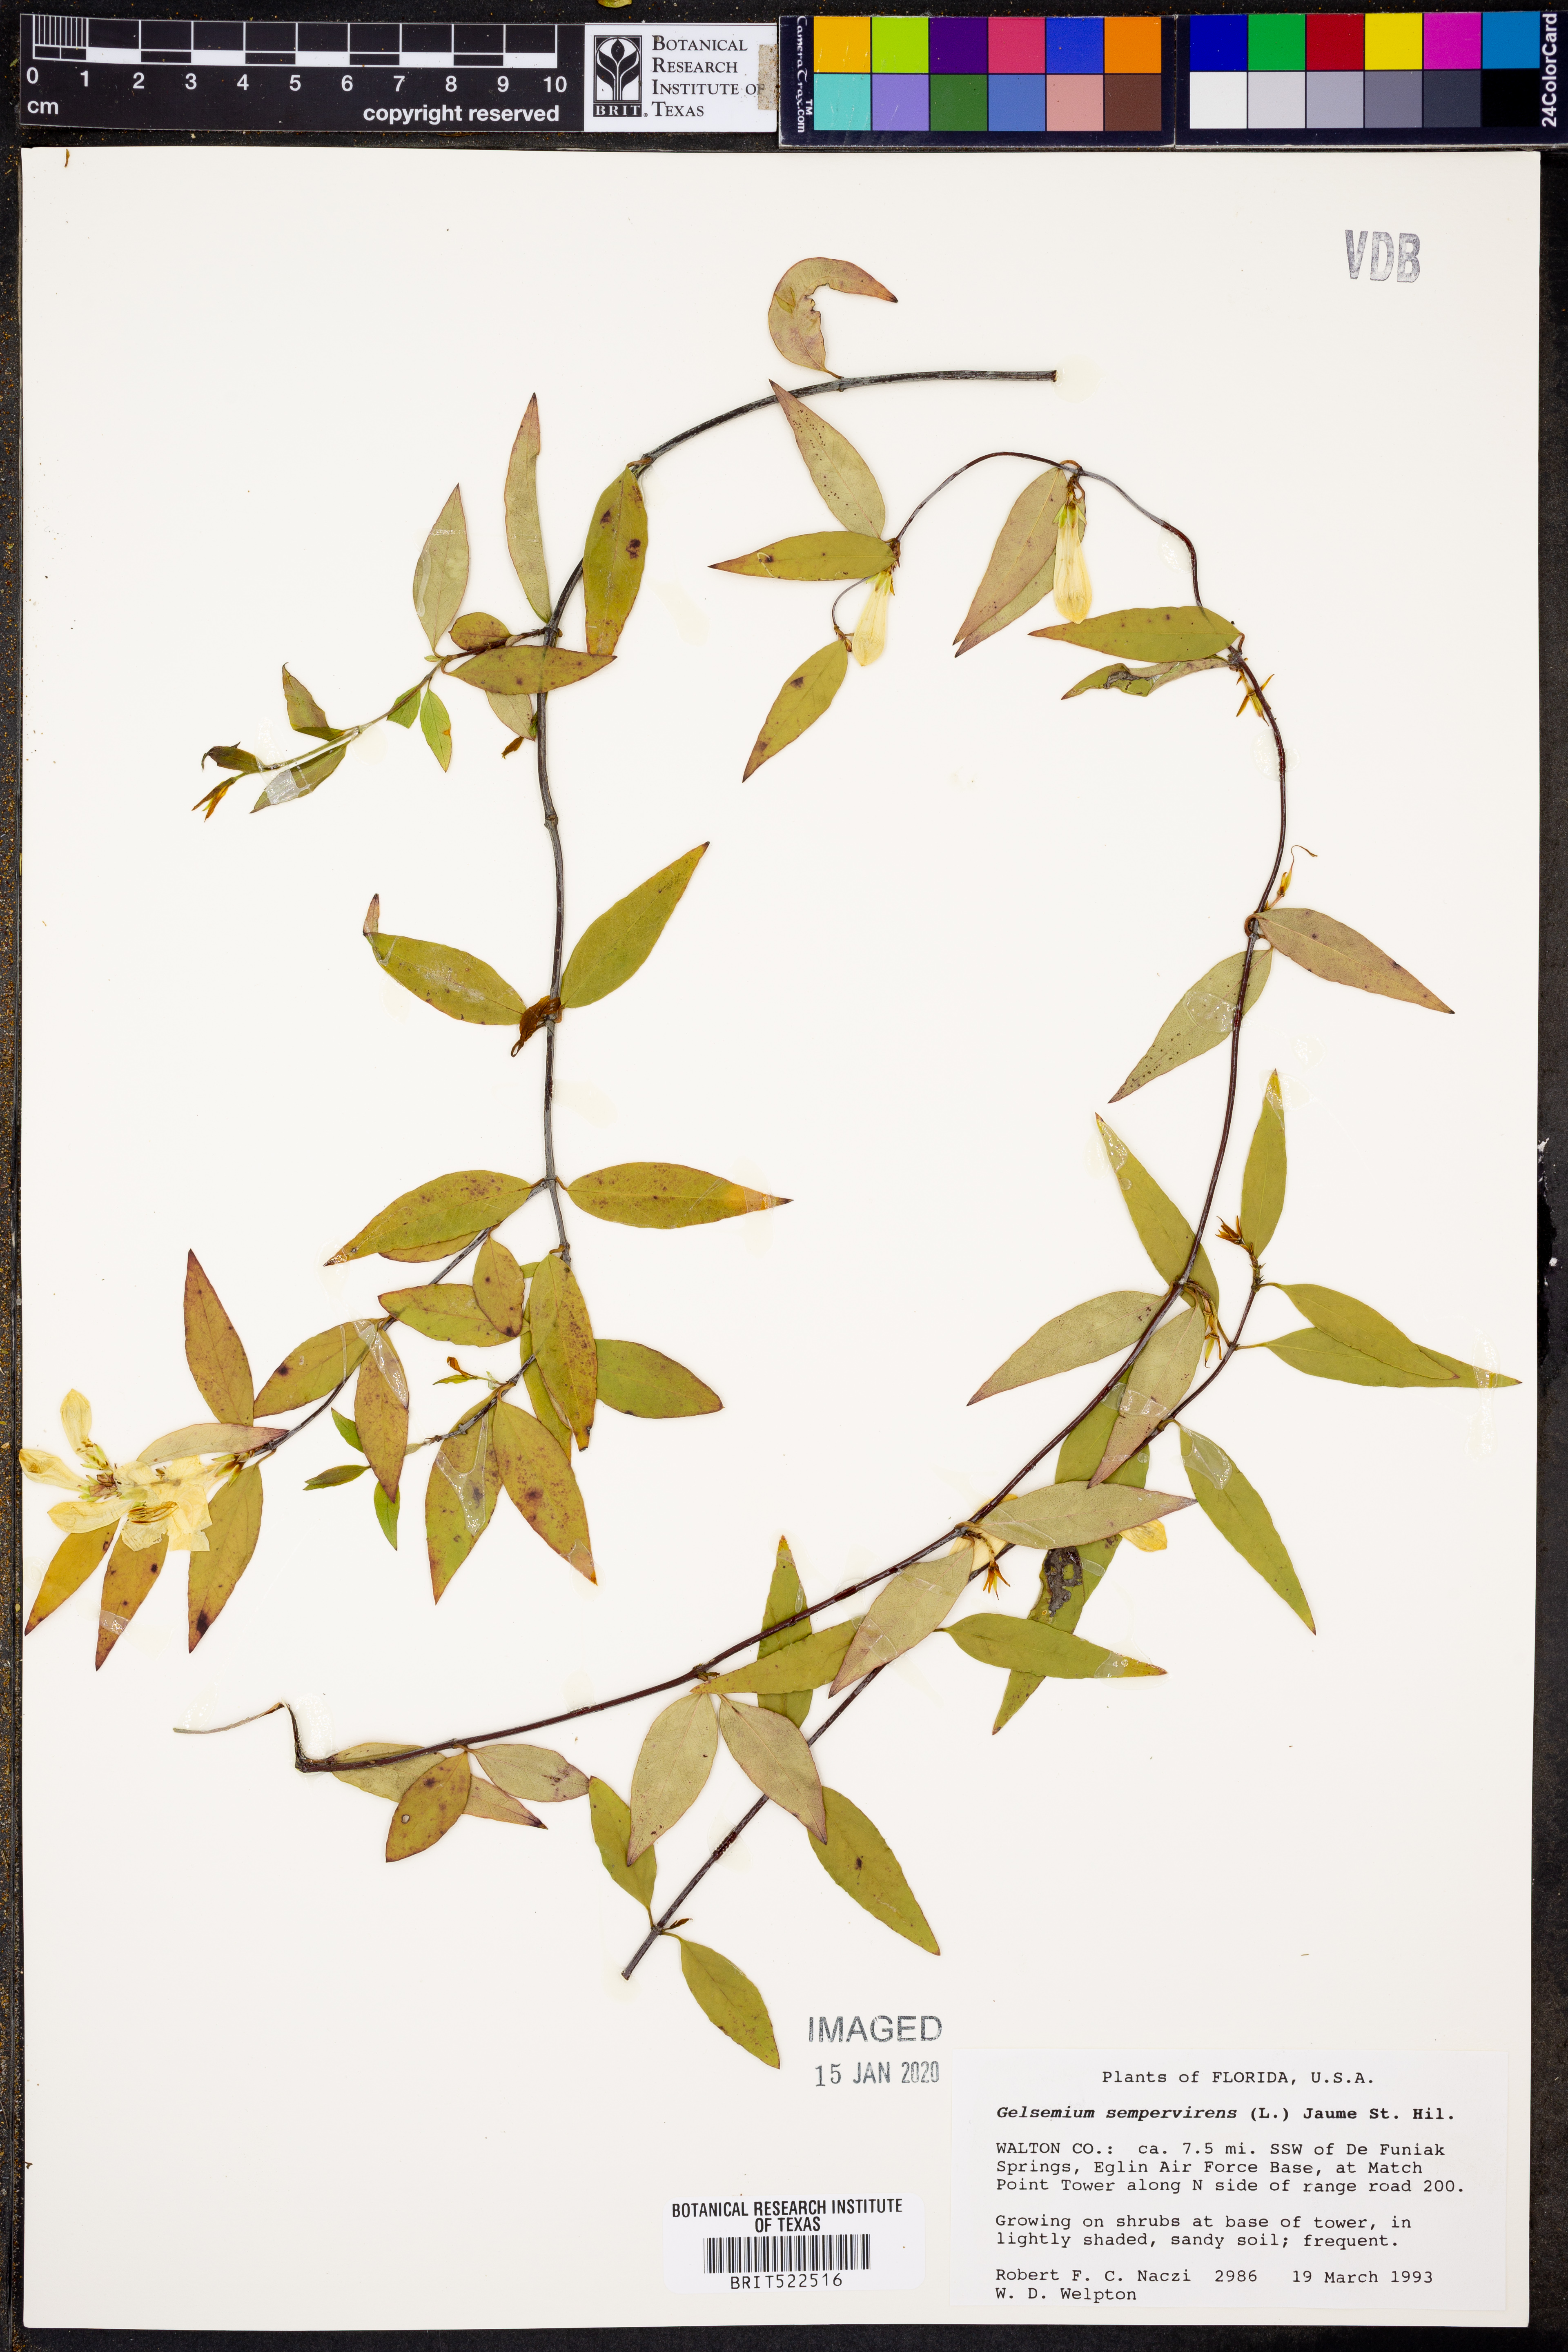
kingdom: Plantae
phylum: Tracheophyta
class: Magnoliopsida
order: Gentianales
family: Gelsemiaceae
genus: Gelsemium
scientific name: Gelsemium sempervirens
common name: Carolina-jasmine
